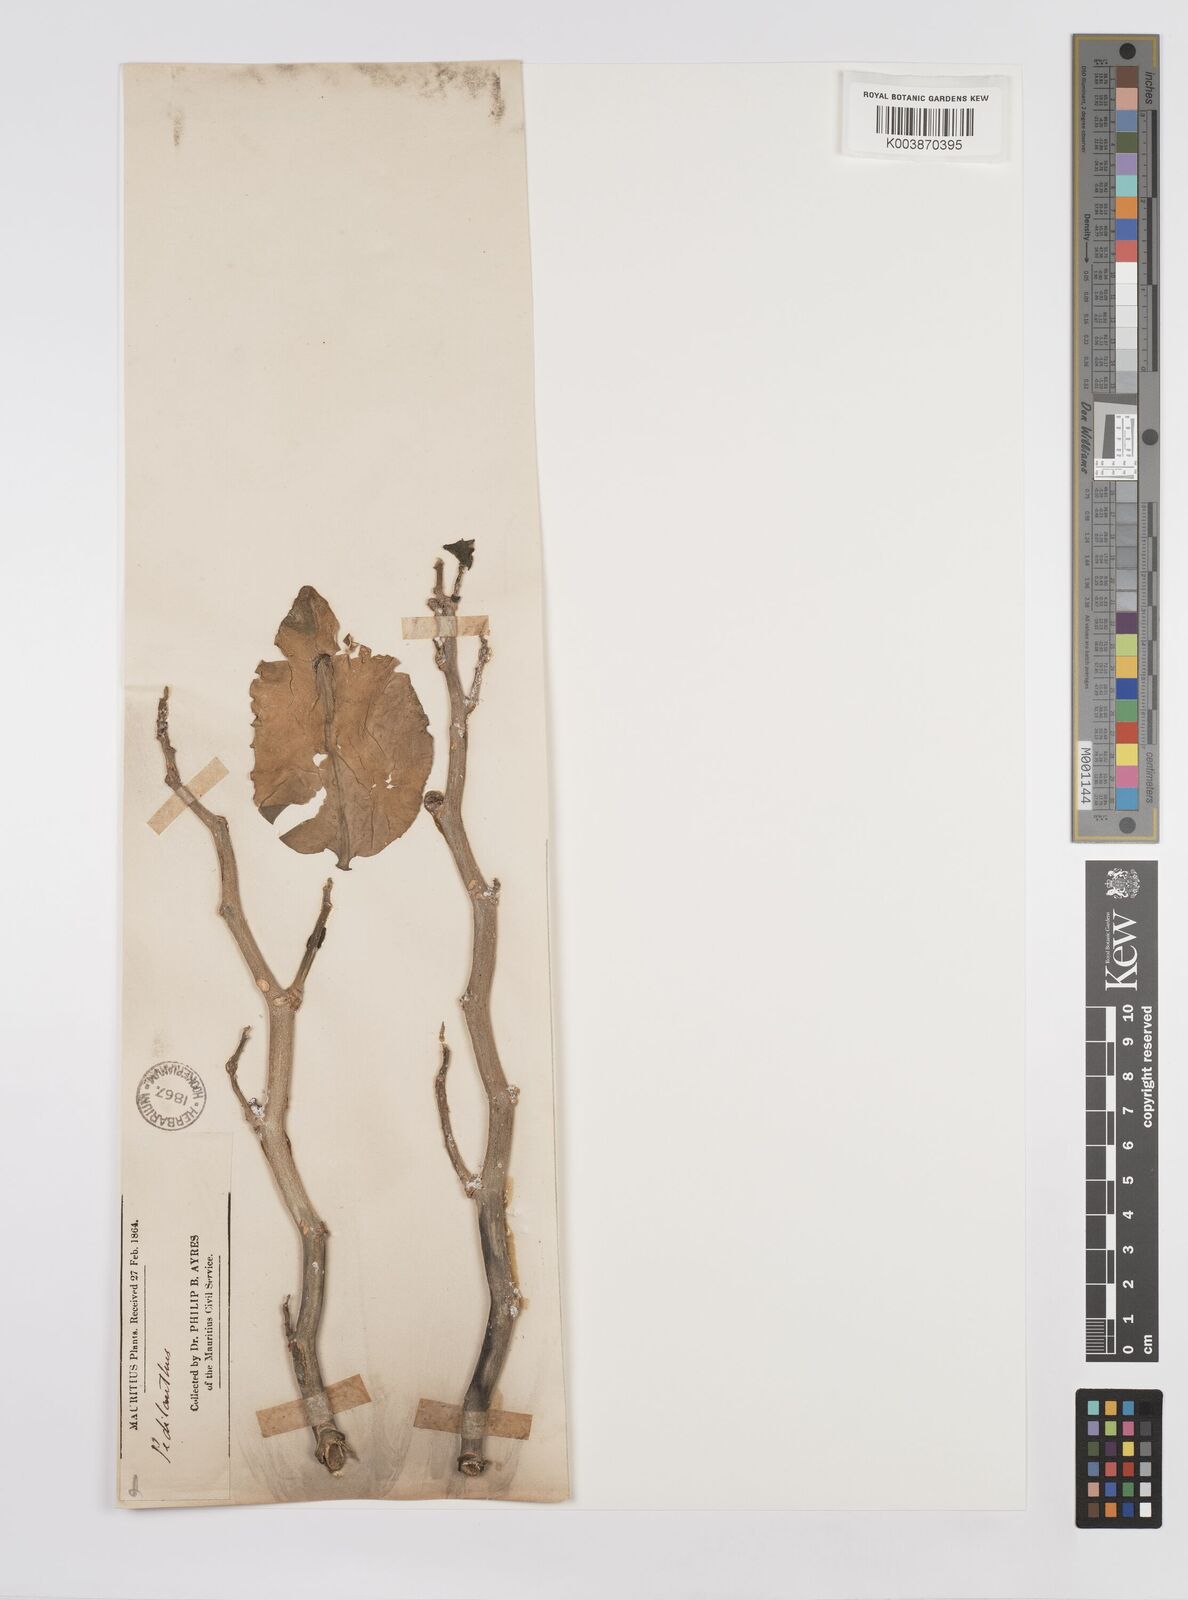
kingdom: Plantae
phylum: Tracheophyta
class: Magnoliopsida
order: Malpighiales
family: Euphorbiaceae
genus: Euphorbia
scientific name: Euphorbia tithymaloides
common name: Slipperplant
